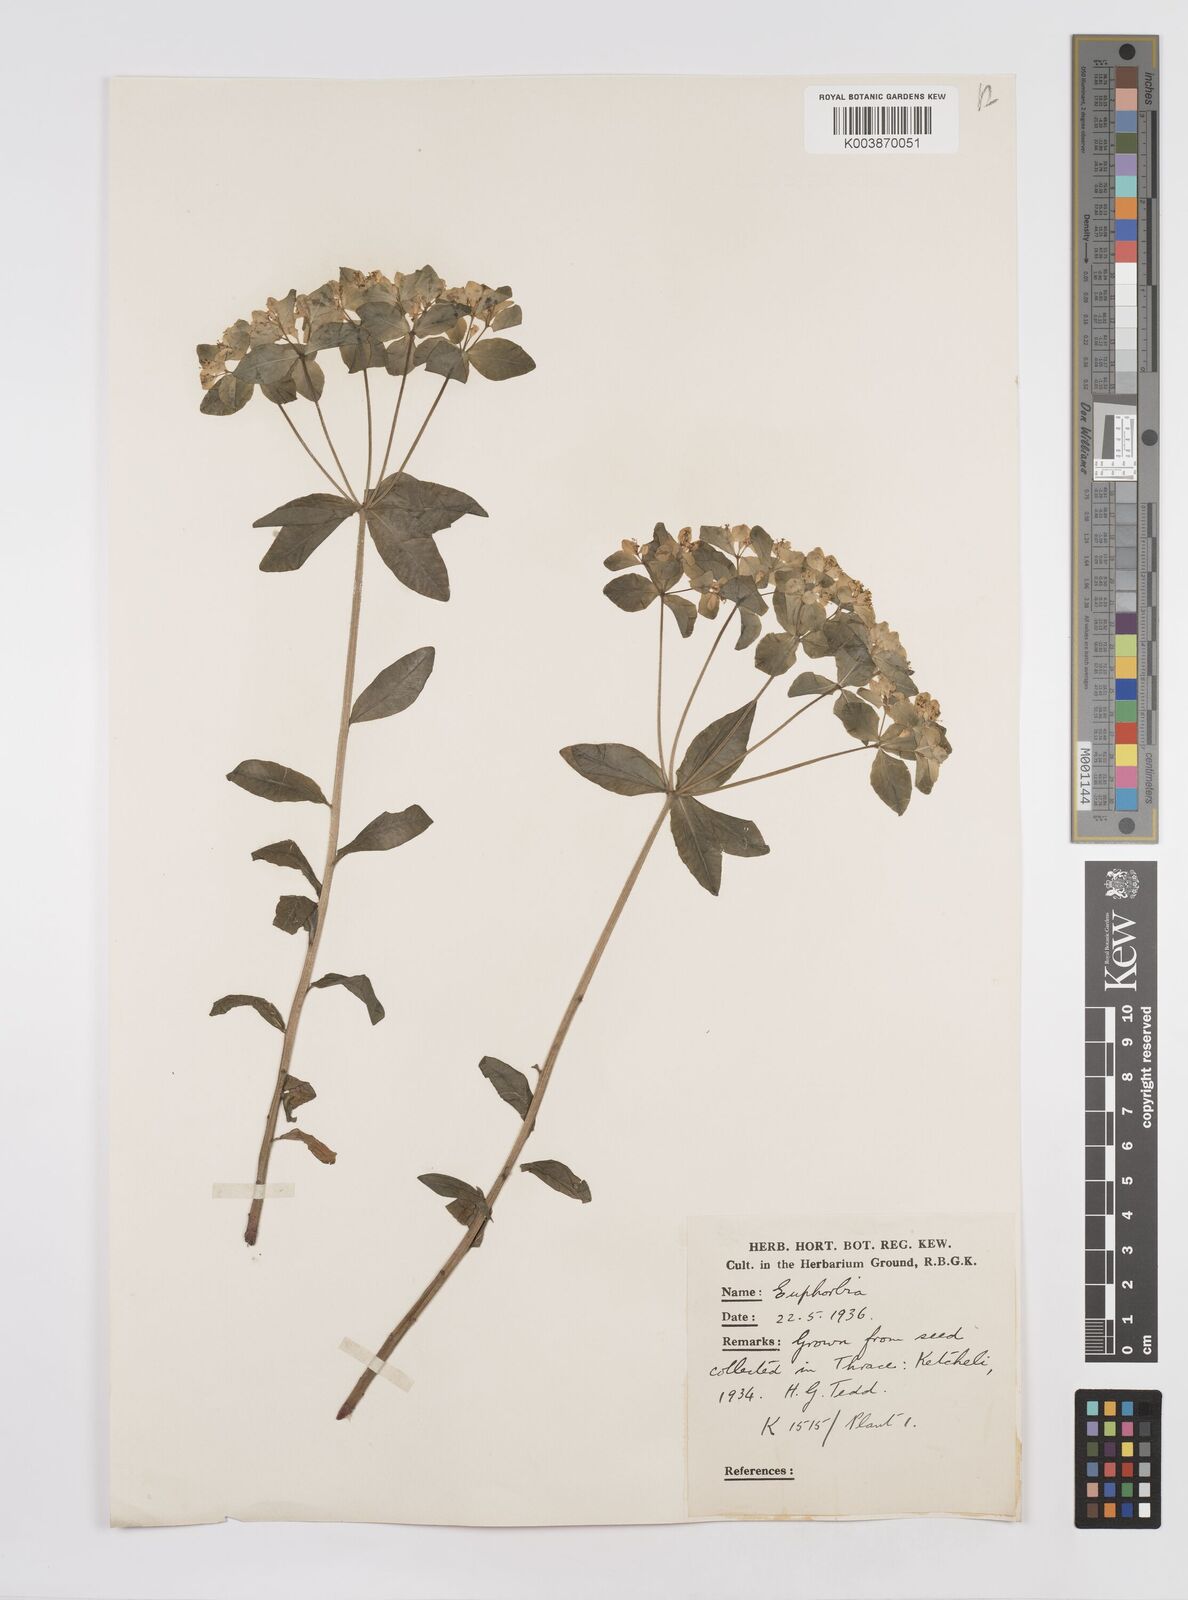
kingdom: Plantae
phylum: Tracheophyta
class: Magnoliopsida
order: Malpighiales
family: Euphorbiaceae
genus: Euphorbia
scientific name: Euphorbia epithymoides
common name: Cushion spurge
